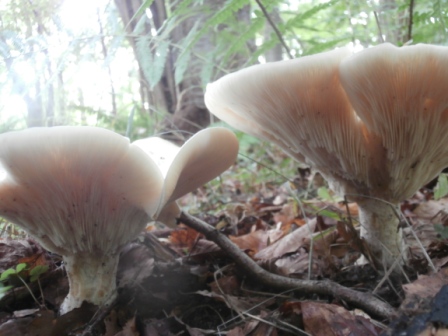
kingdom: Fungi
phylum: Basidiomycota
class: Agaricomycetes
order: Agaricales
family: Tricholomataceae
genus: Aspropaxillus
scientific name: Aspropaxillus giganteus
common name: kæmpe-tragtridderhat
